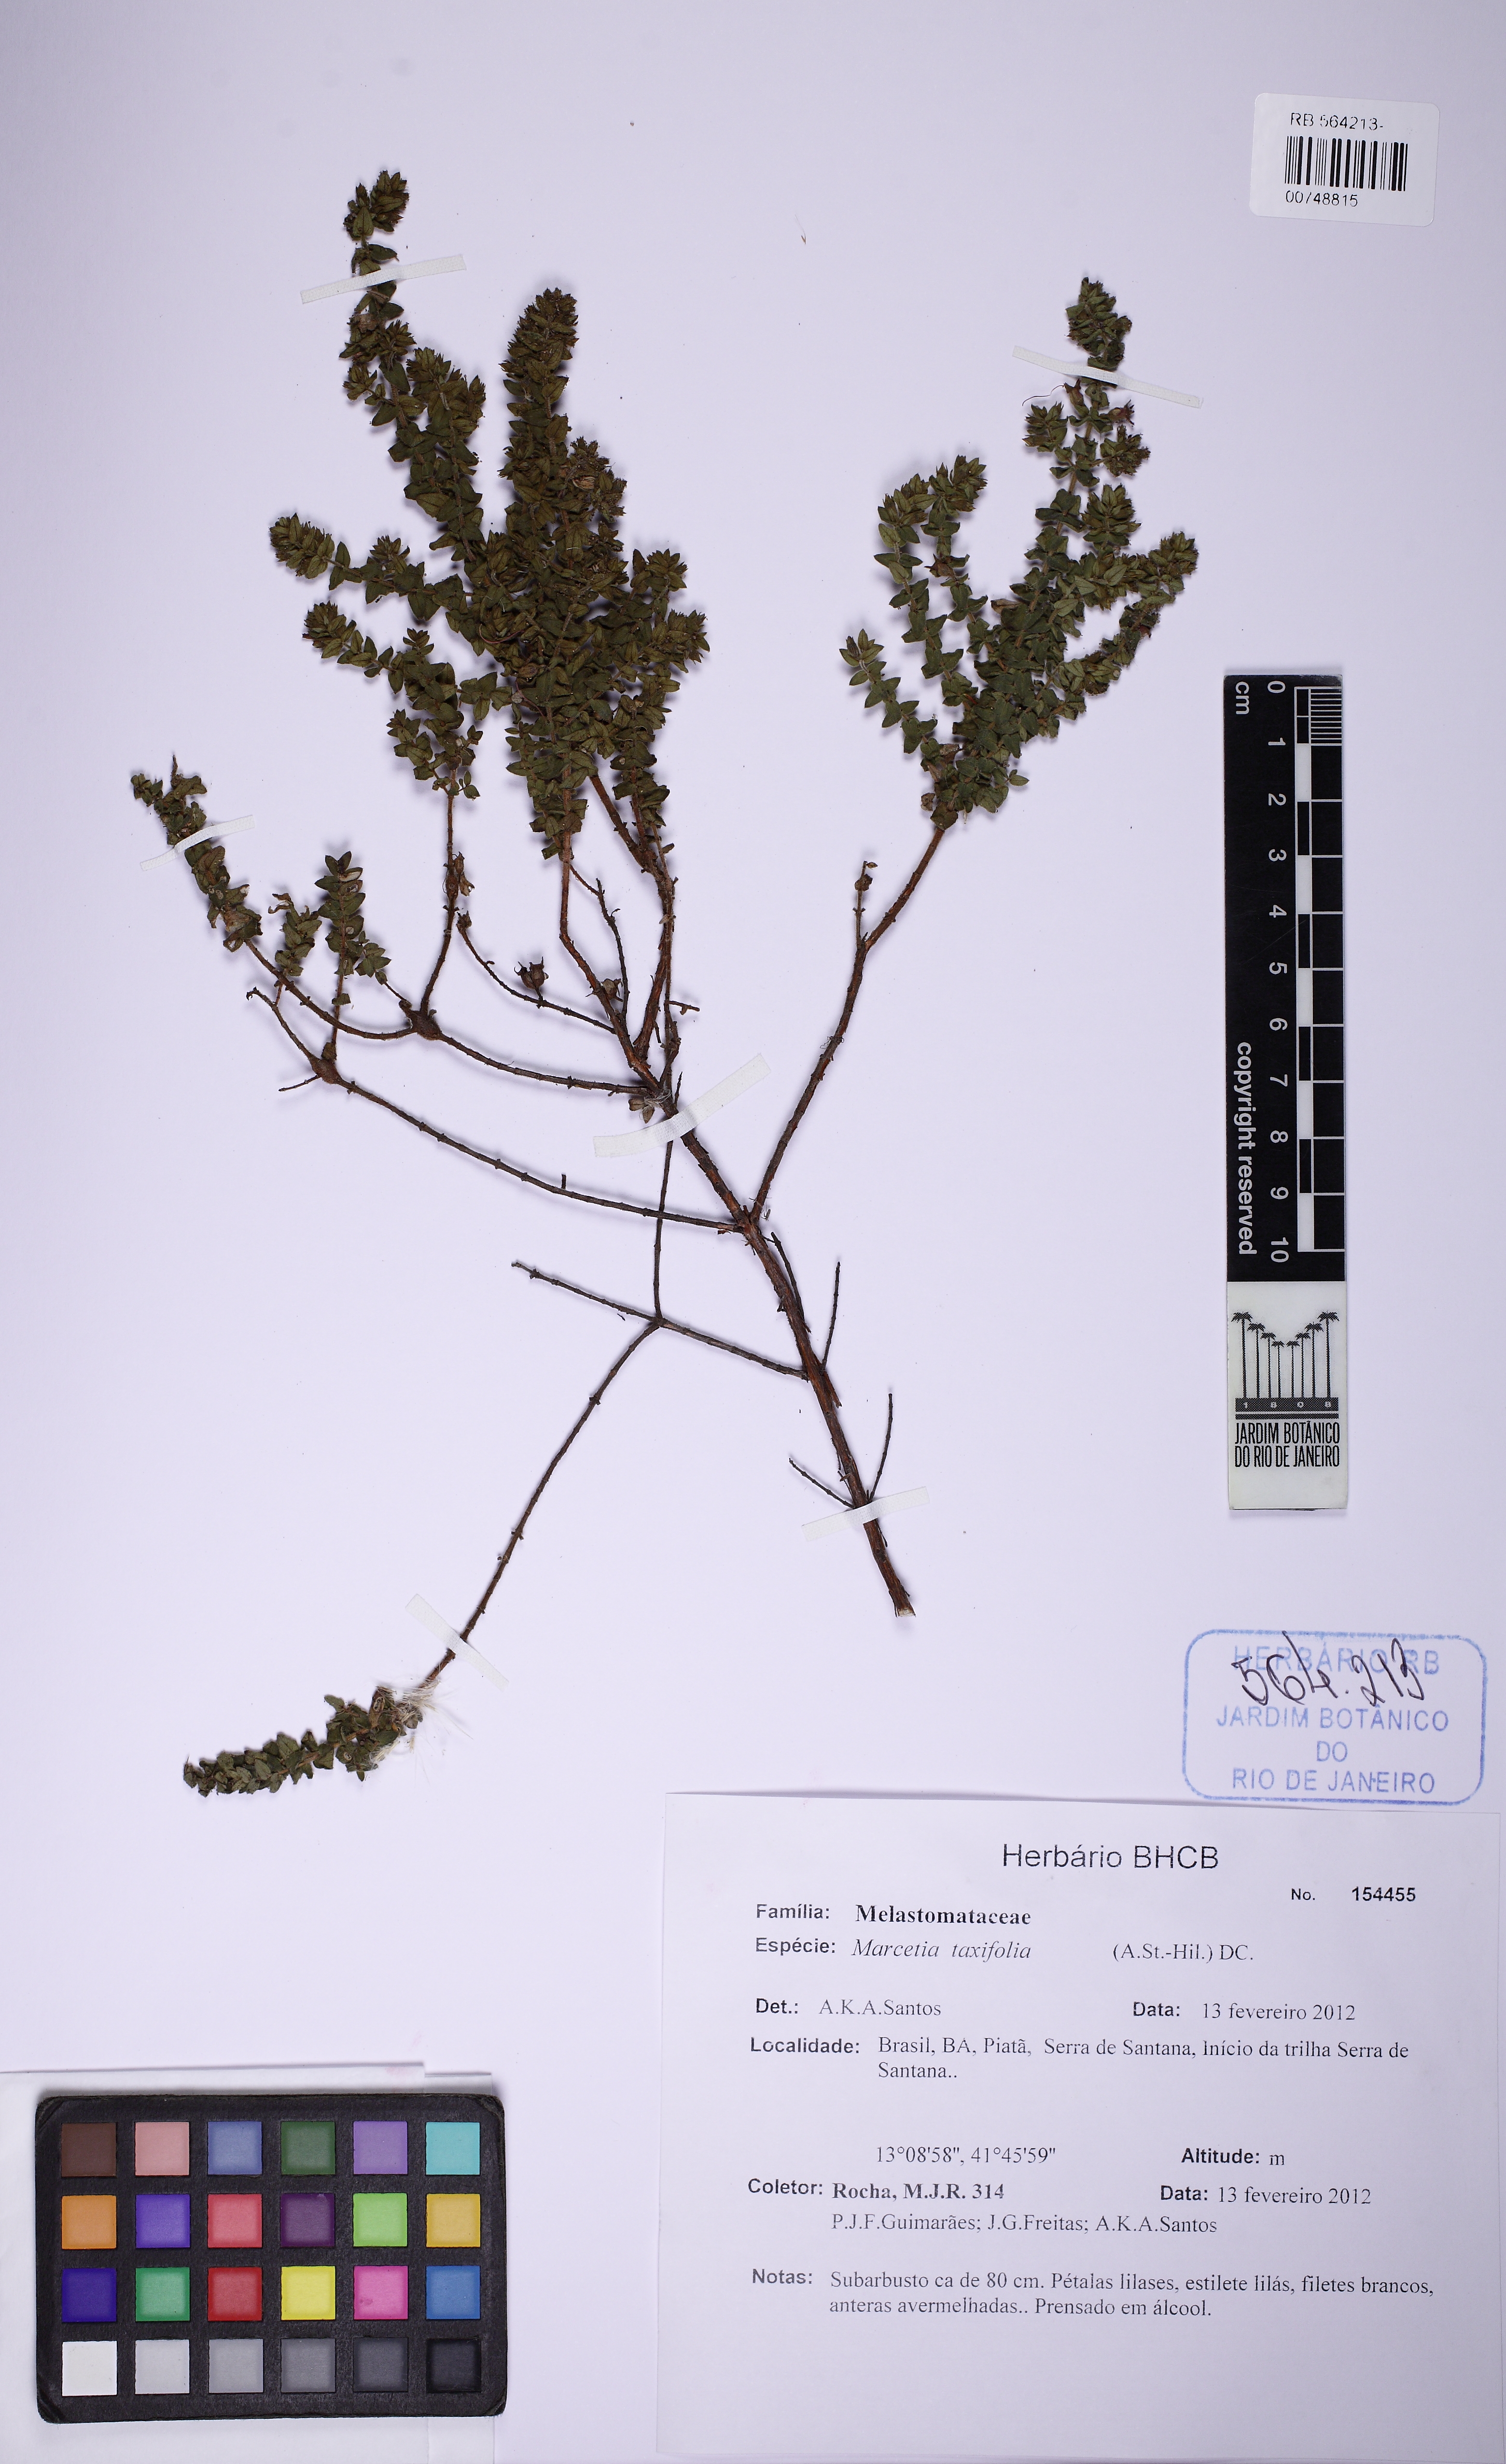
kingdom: Plantae
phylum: Tracheophyta
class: Magnoliopsida
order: Myrtales
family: Melastomataceae
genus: Marcetia
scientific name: Marcetia taxifolia
